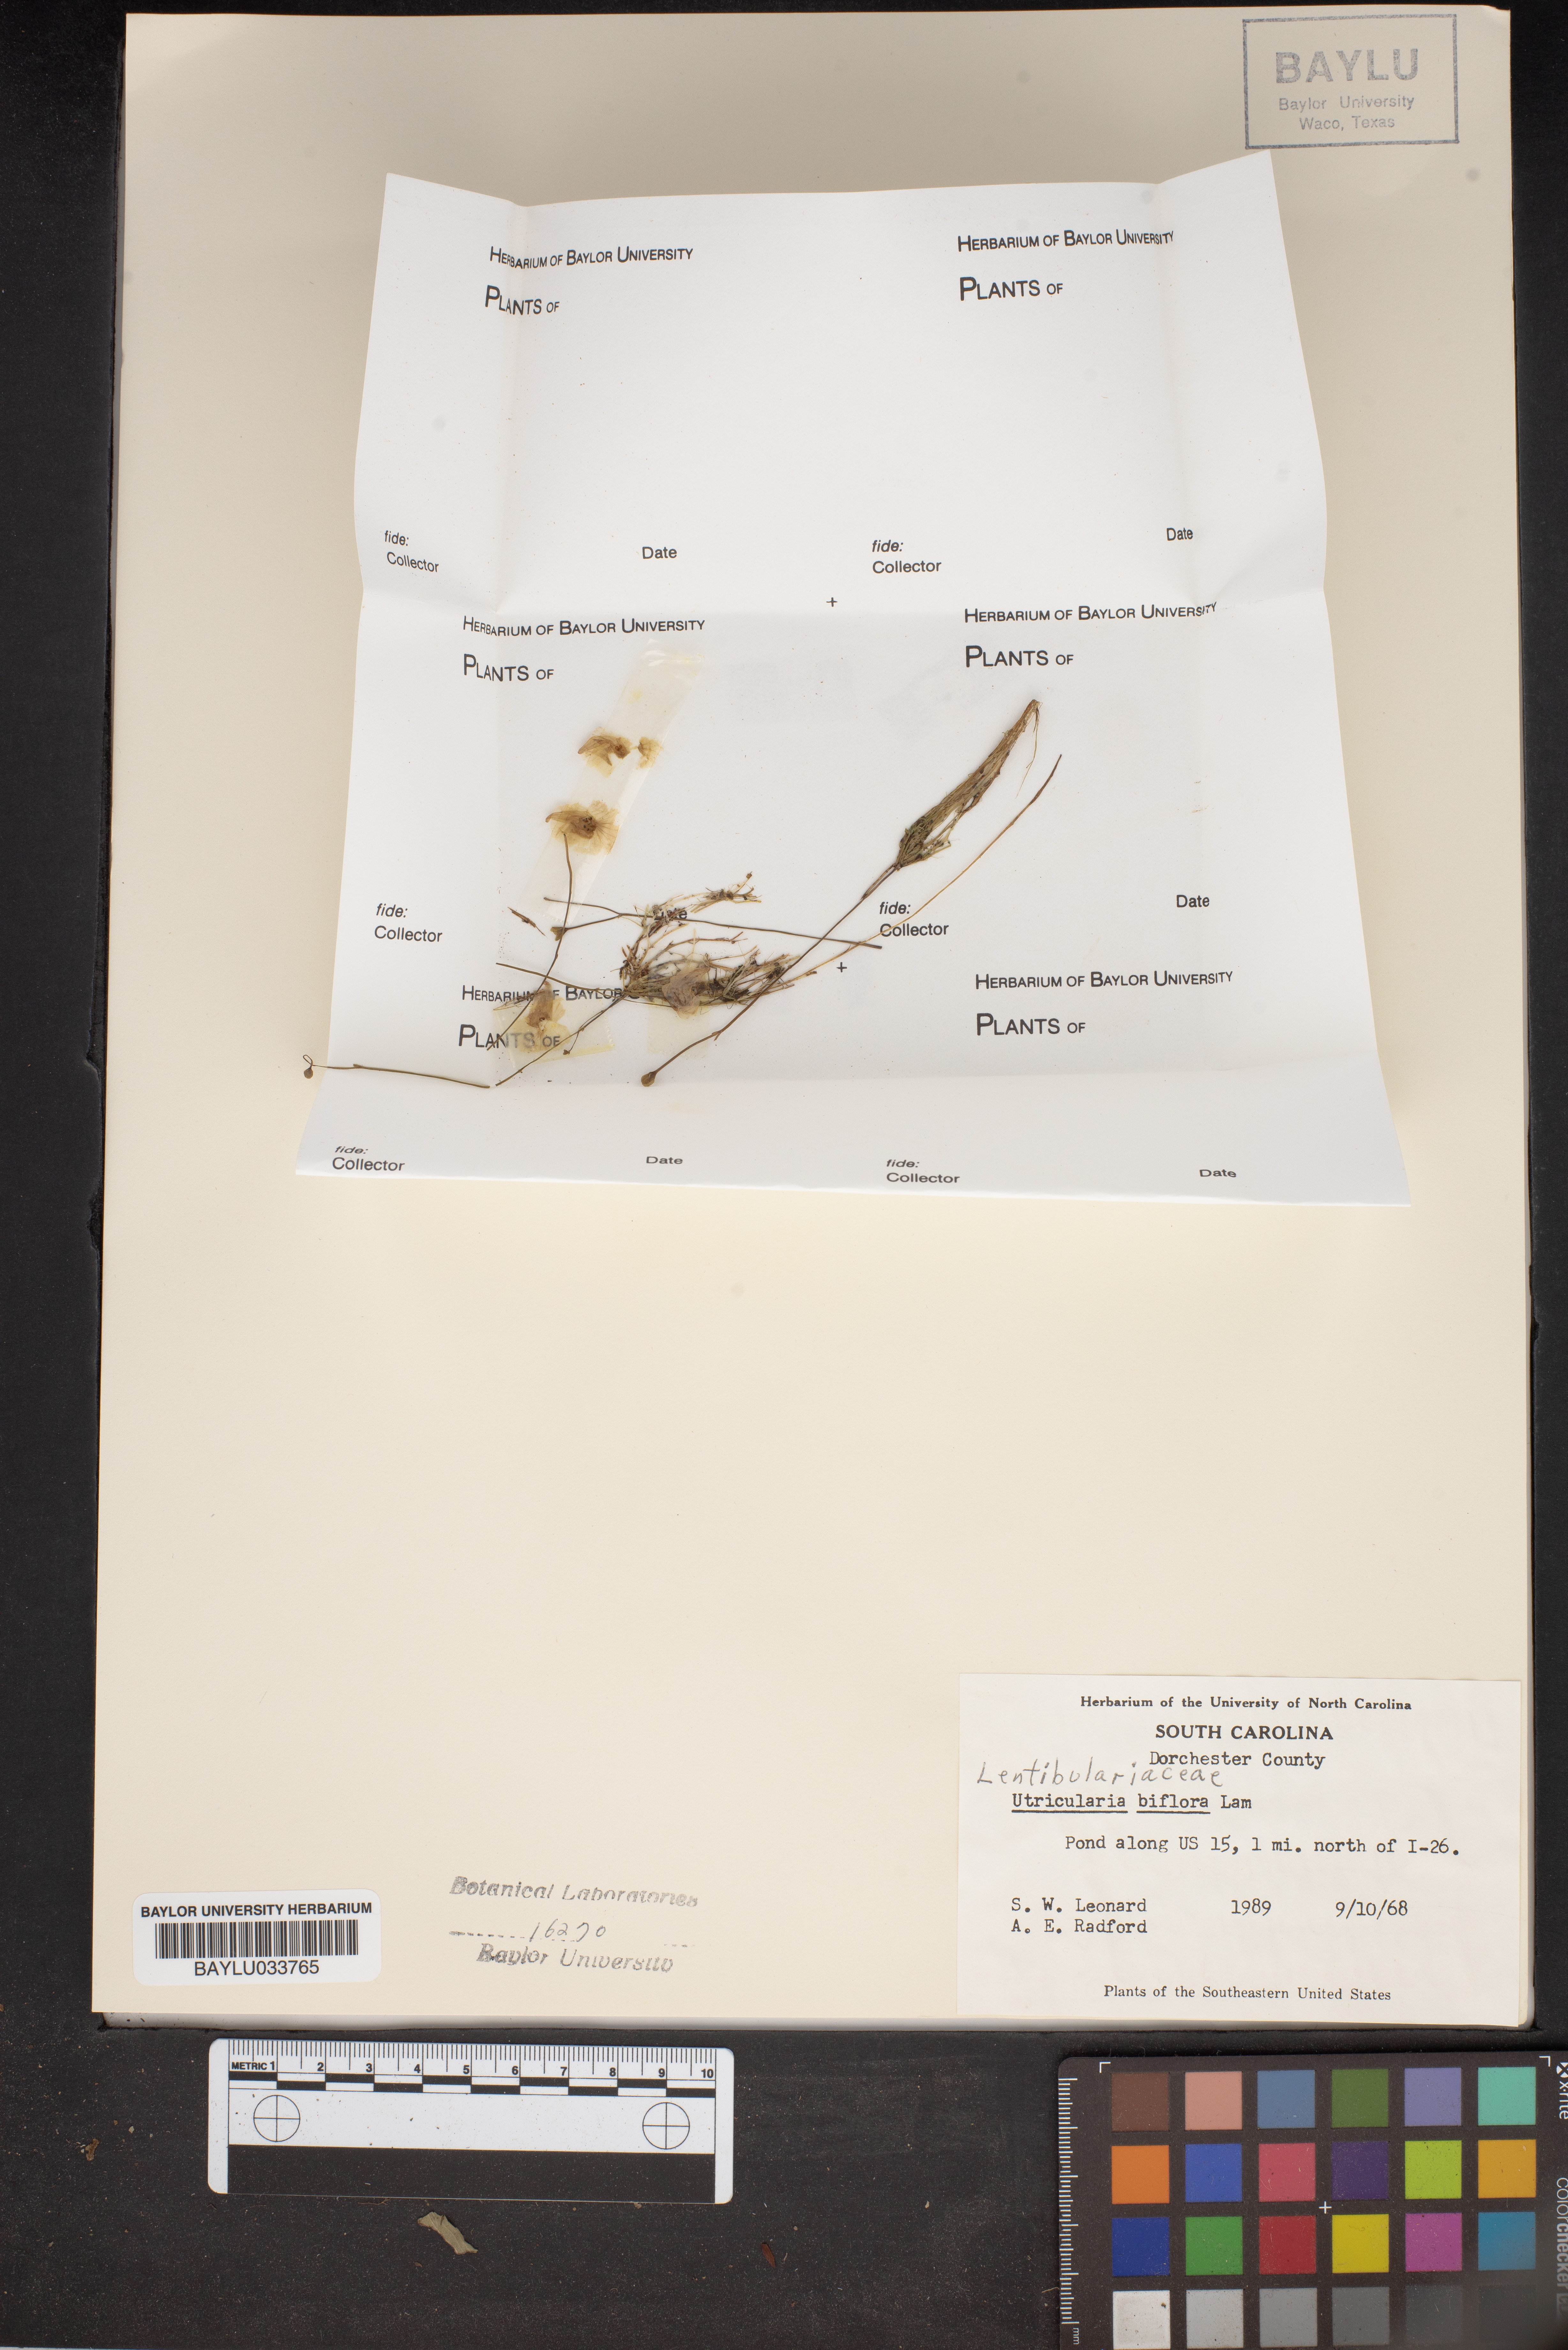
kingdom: Plantae
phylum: Tracheophyta
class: Magnoliopsida
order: Lamiales
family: Lentibulariaceae
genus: Utricularia
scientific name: Utricularia bifida
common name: Bifid bladderwort
